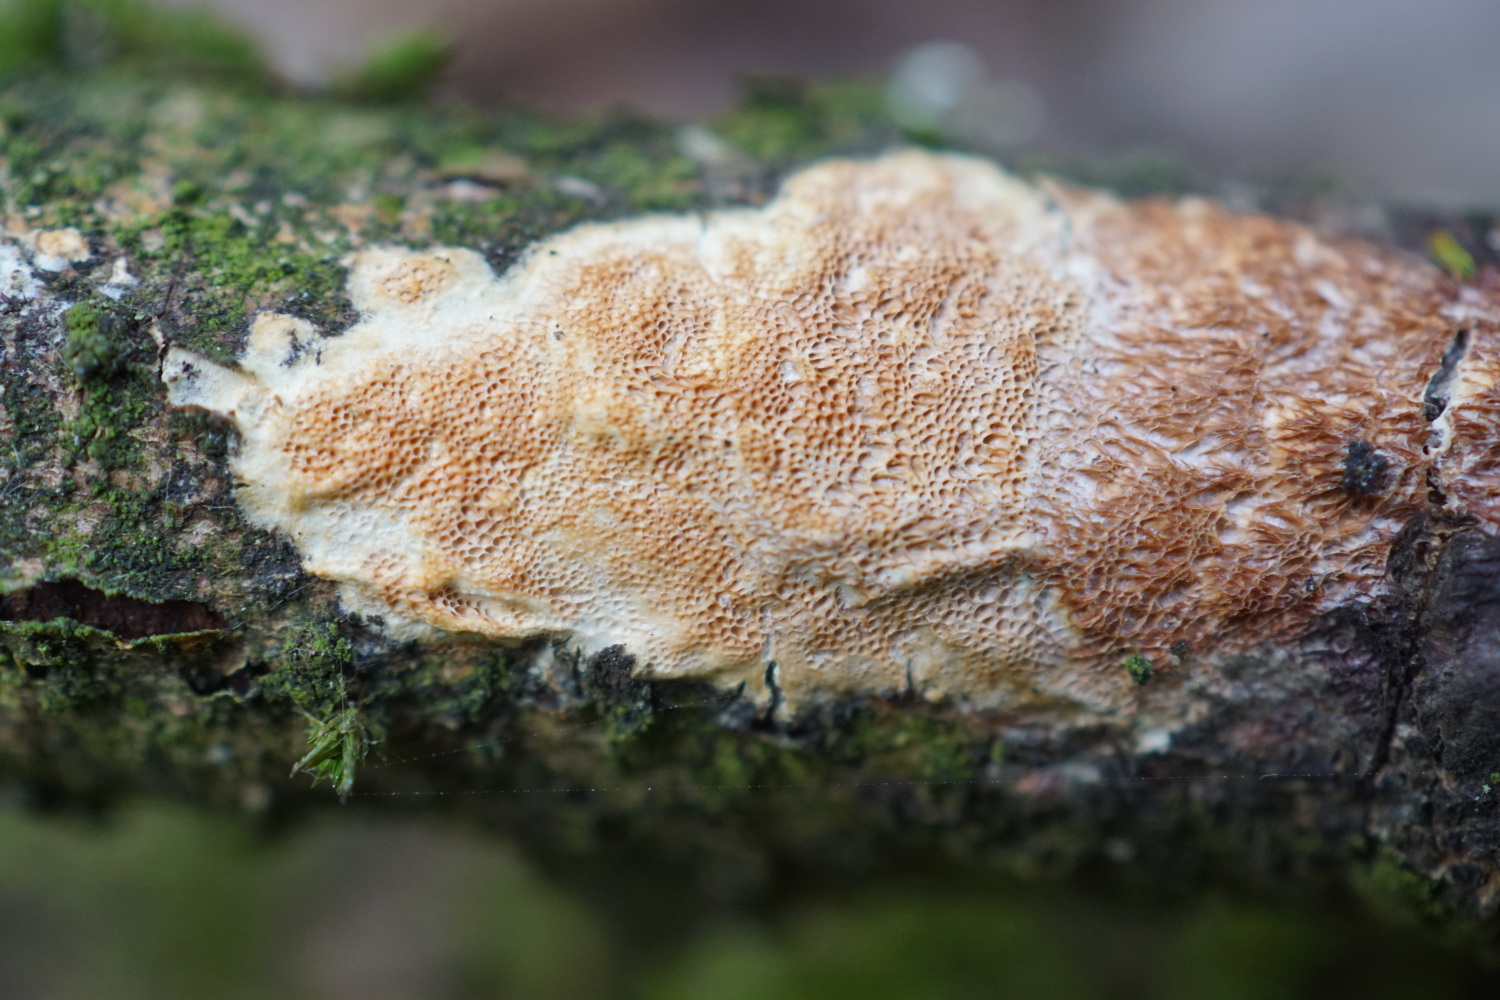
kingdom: Fungi
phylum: Basidiomycota
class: Agaricomycetes
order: Polyporales
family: Irpicaceae
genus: Resiniporus
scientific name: Resiniporus resinascens
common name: trist pastelporesvamp
